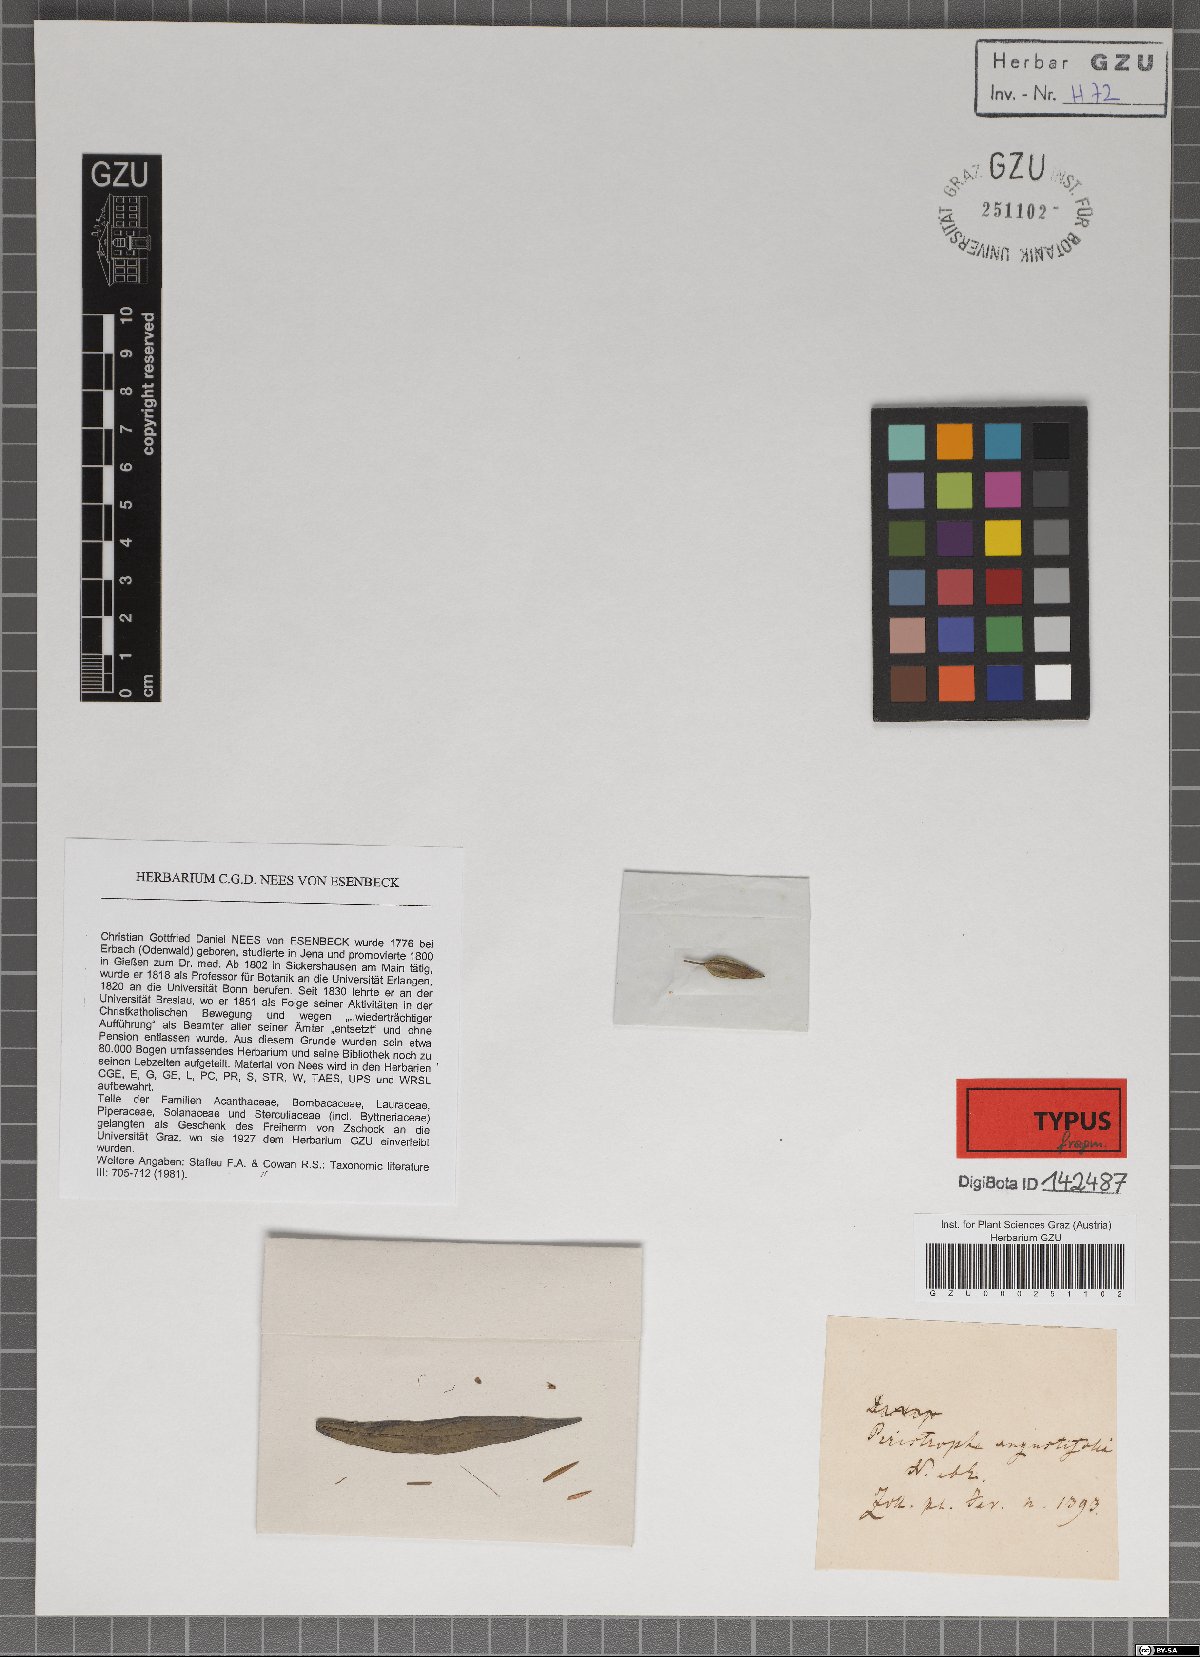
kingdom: Plantae
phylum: Tracheophyta
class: Magnoliopsida
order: Lamiales
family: Acanthaceae
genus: Dicliptera
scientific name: Dicliptera Peristrophe angustifolia
